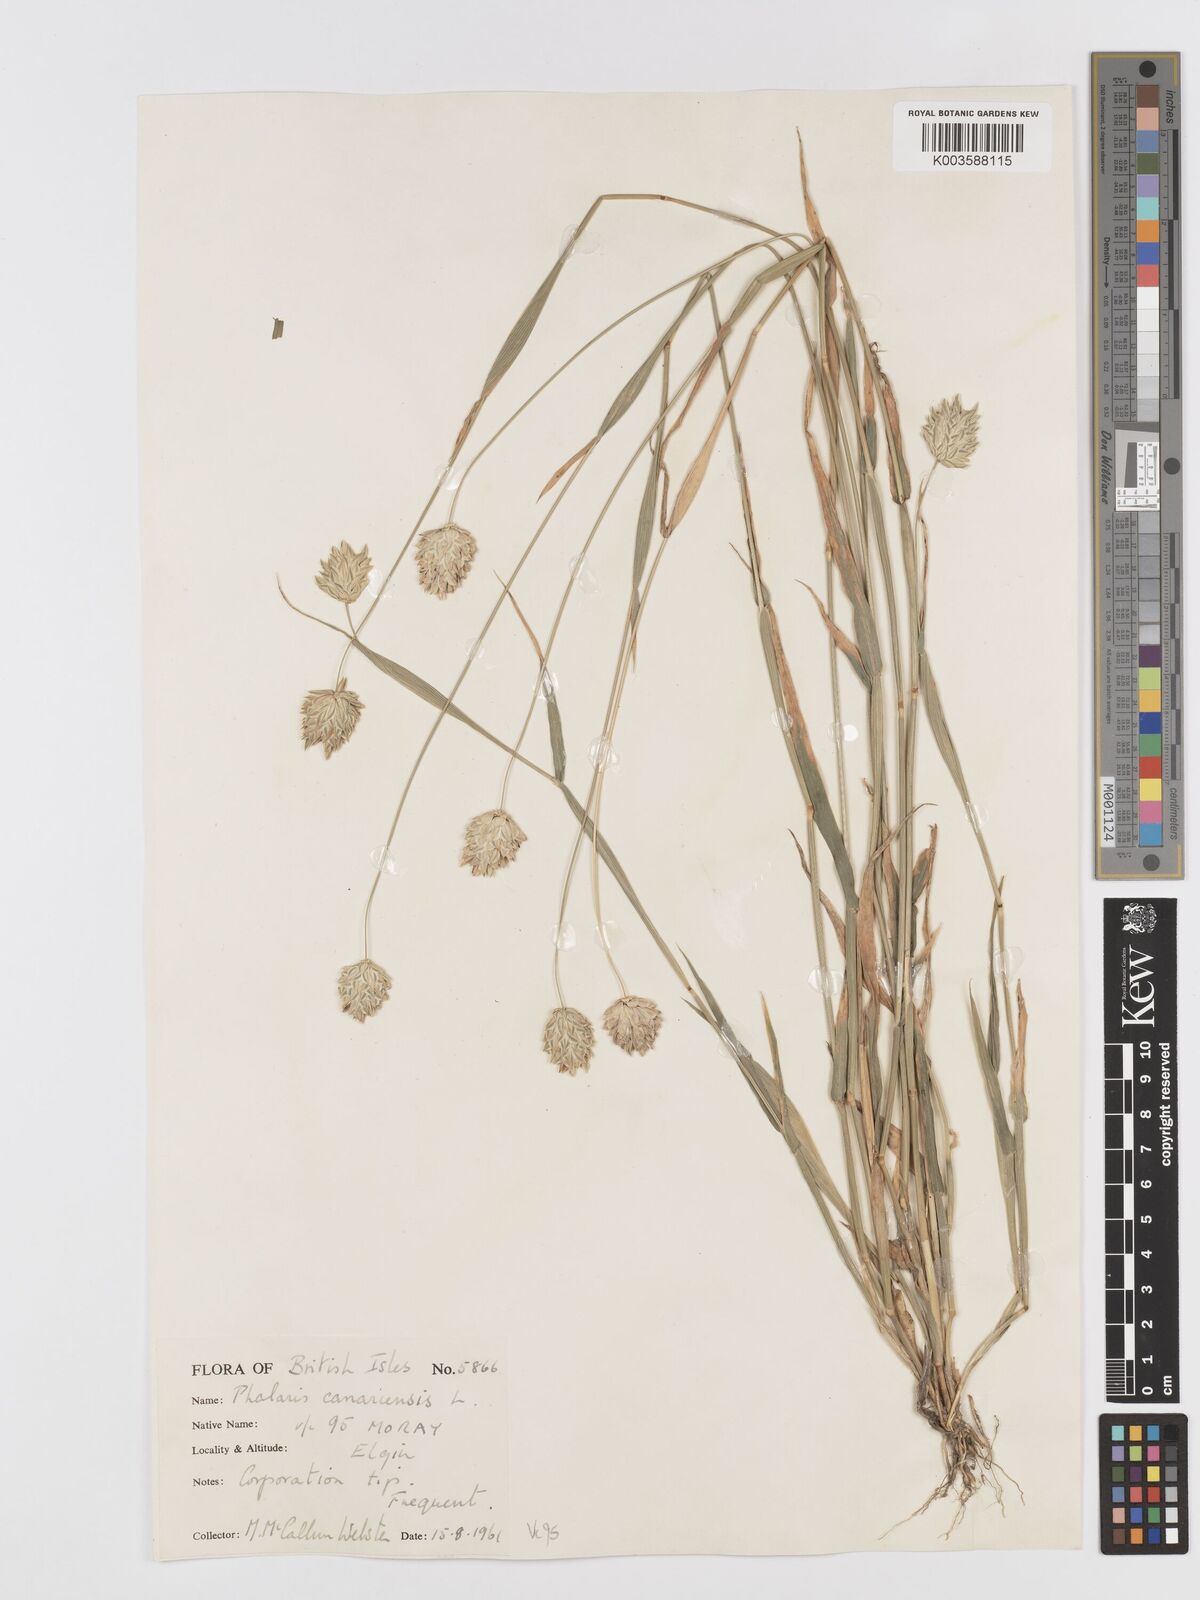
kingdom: Plantae
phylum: Tracheophyta
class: Liliopsida
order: Poales
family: Poaceae
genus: Phalaris
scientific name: Phalaris canariensis
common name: Annual canarygrass
